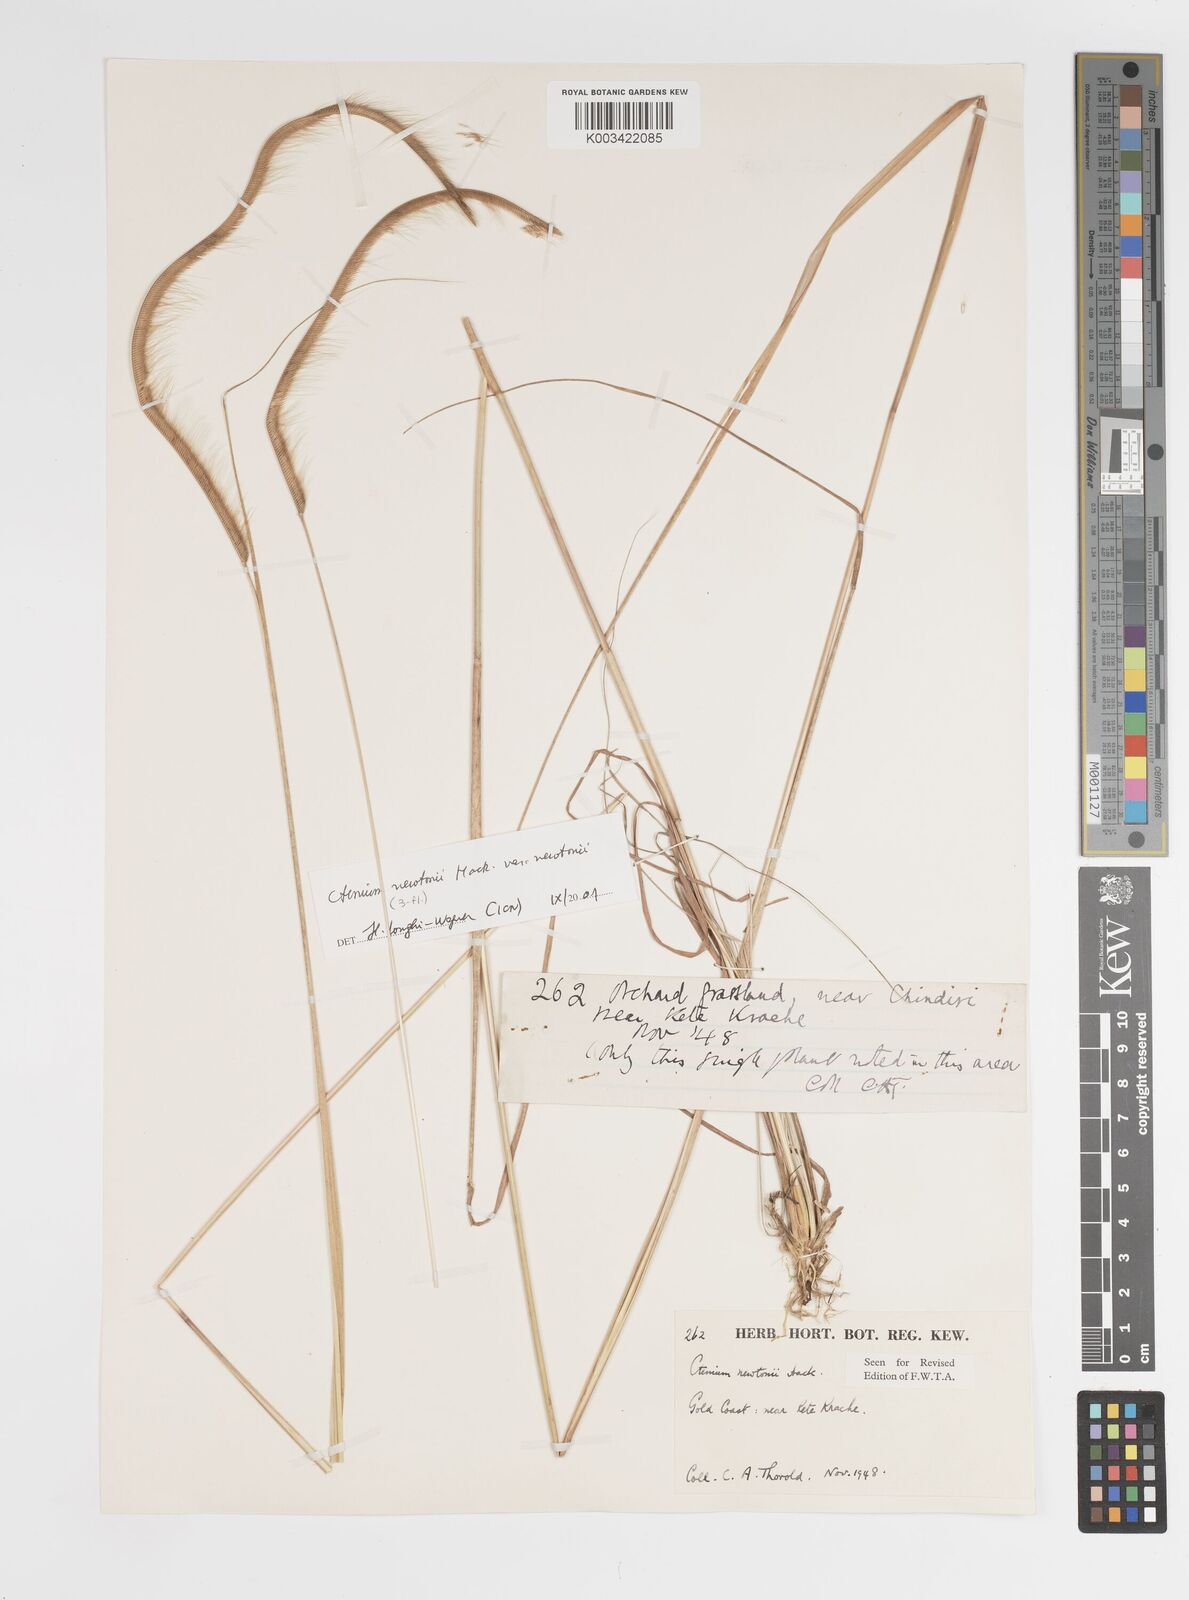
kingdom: Plantae
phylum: Tracheophyta
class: Liliopsida
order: Poales
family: Poaceae
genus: Ctenium
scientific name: Ctenium newtonii
